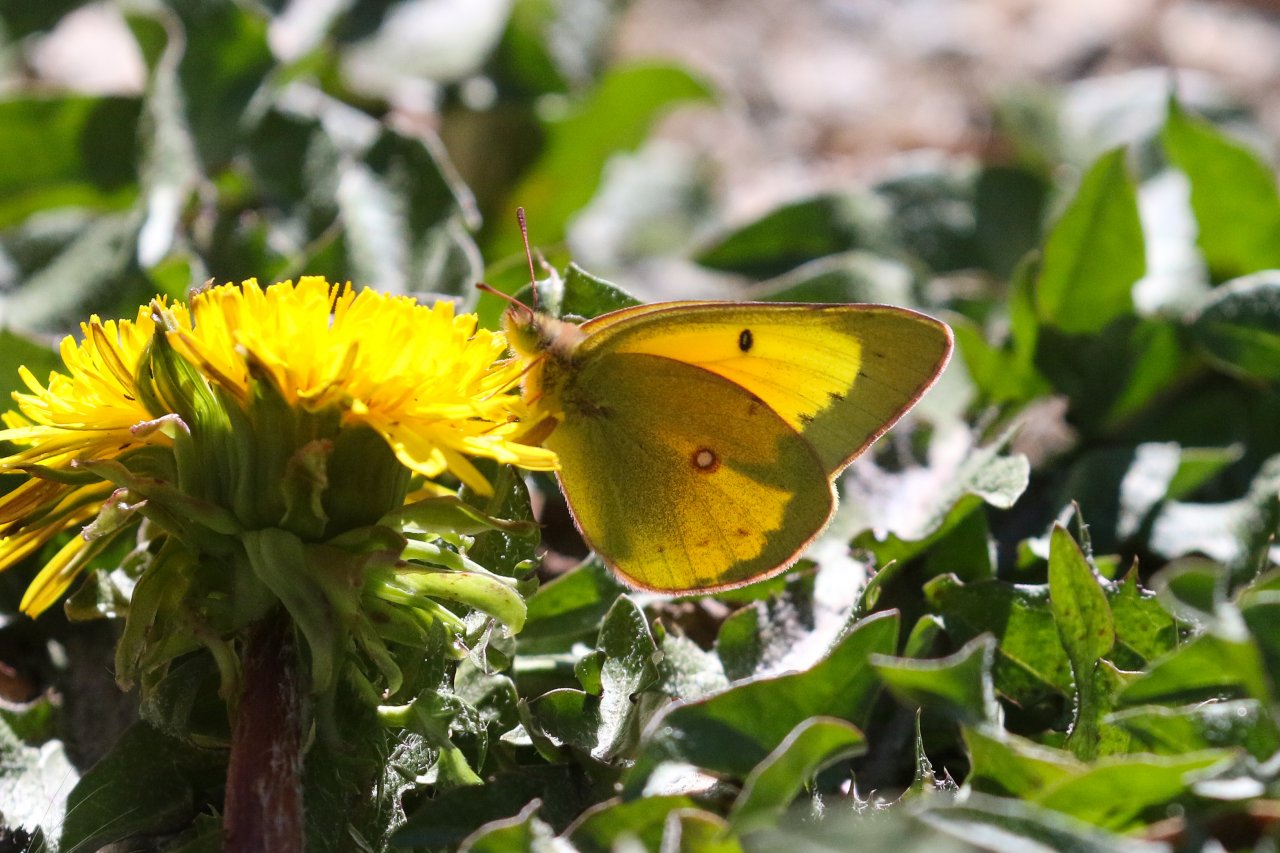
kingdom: Animalia
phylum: Arthropoda
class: Insecta
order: Lepidoptera
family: Pieridae
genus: Colias
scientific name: Colias eurytheme
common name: Orange Sulphur
